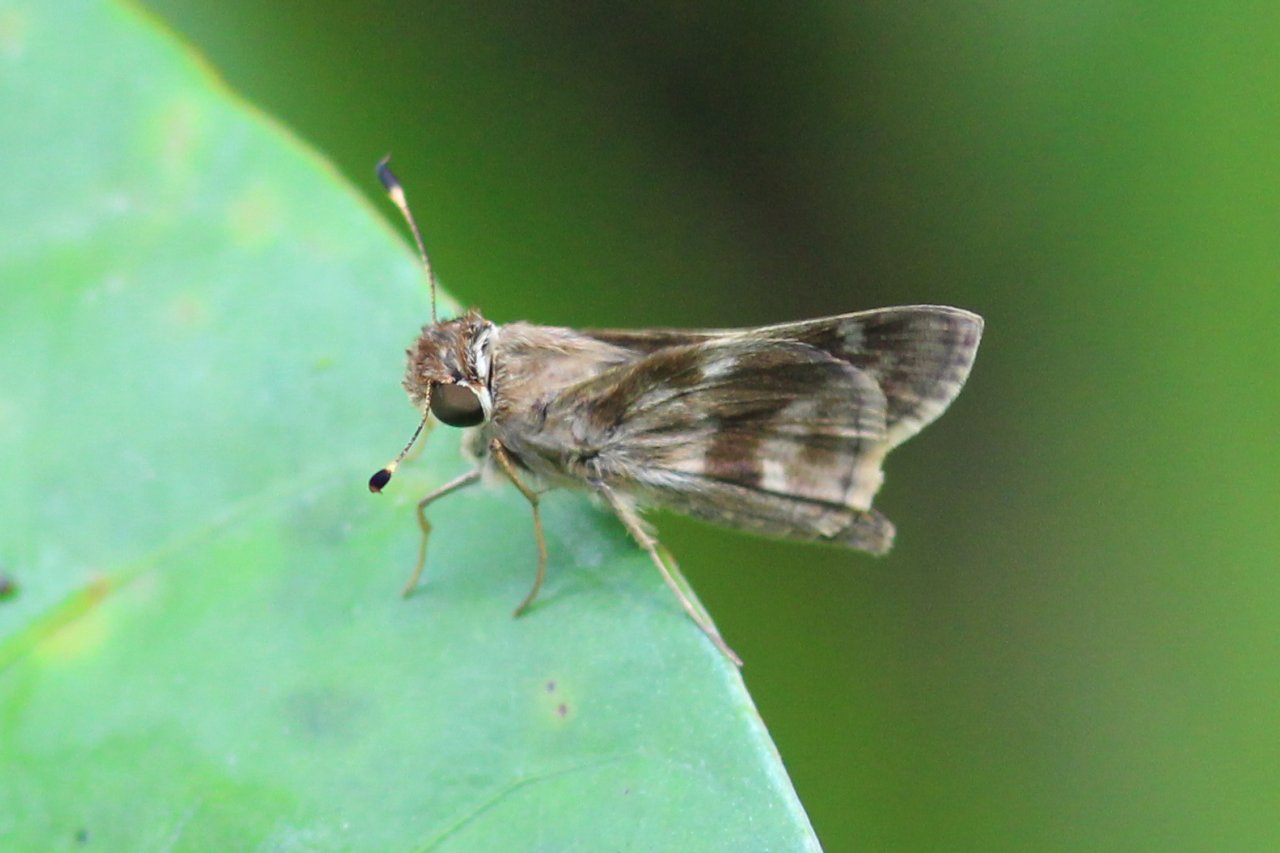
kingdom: Animalia
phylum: Arthropoda
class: Insecta
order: Lepidoptera
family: Hesperiidae
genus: Pompeius
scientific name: Pompeius pompeius
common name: Pompeius Skipper
